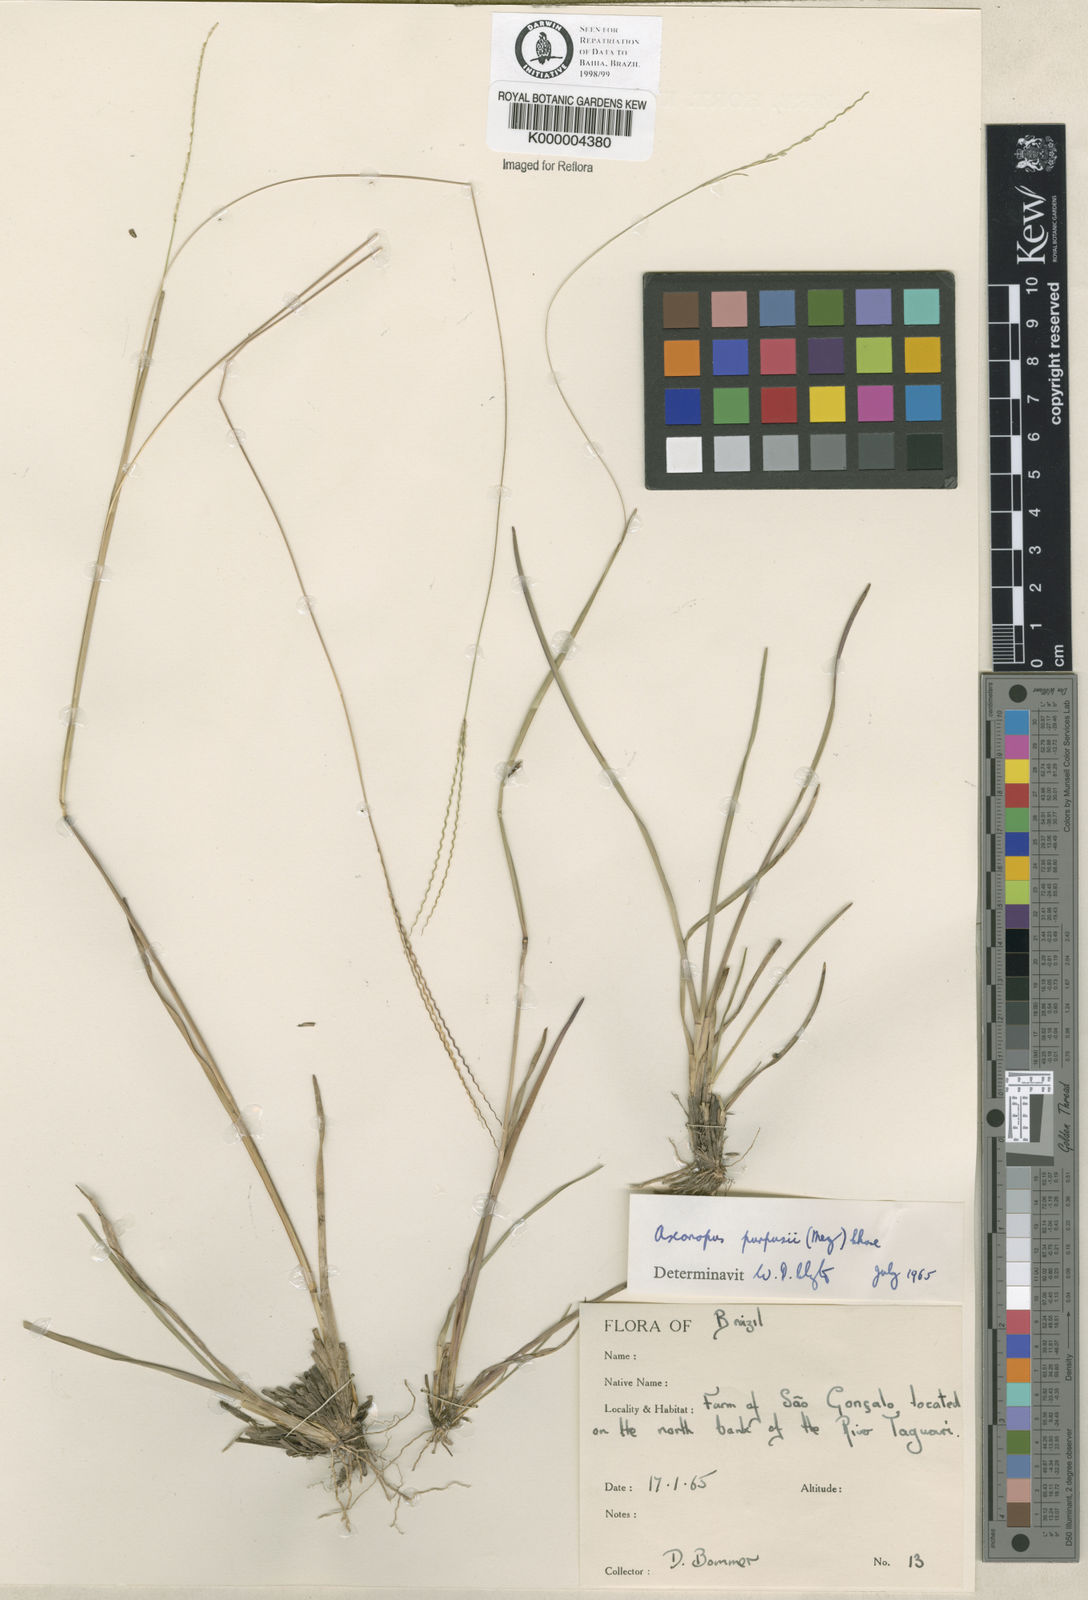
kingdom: Plantae
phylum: Tracheophyta
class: Liliopsida
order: Poales
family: Poaceae
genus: Axonopus
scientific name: Axonopus purpusii
